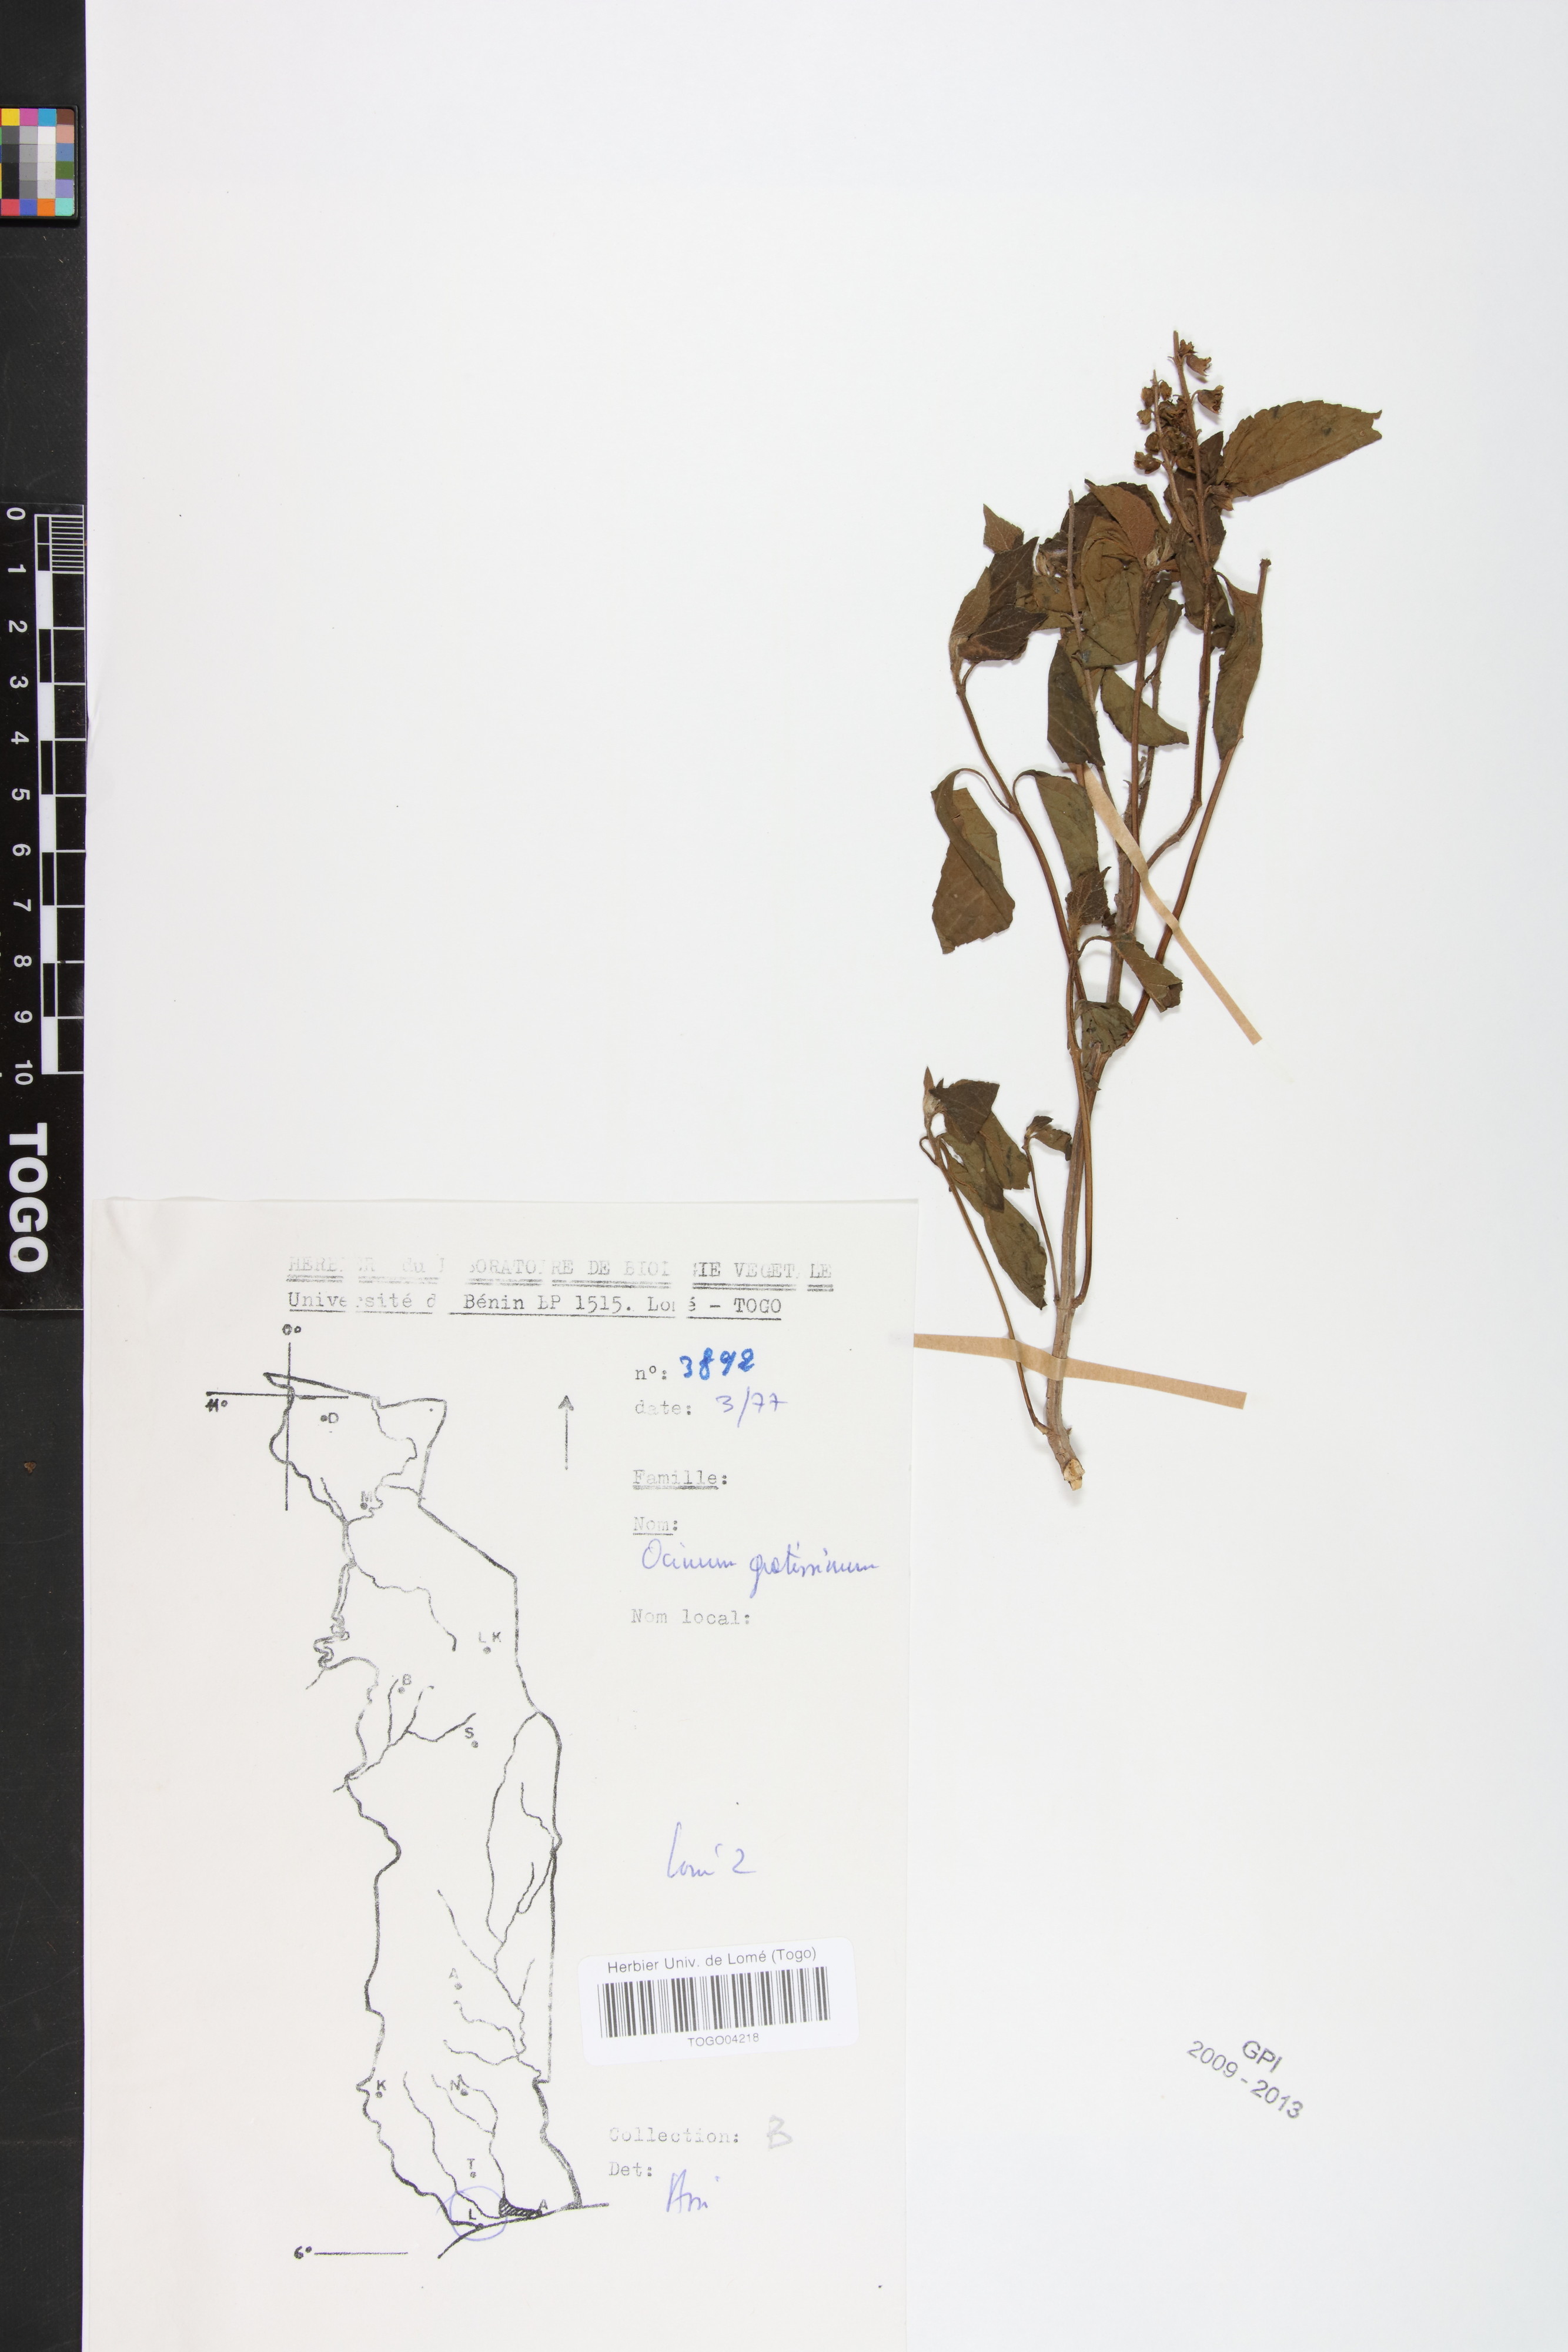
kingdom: Plantae
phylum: Tracheophyta
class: Magnoliopsida
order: Lamiales
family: Lamiaceae
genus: Ocimum
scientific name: Ocimum gratissimum
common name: African basil
